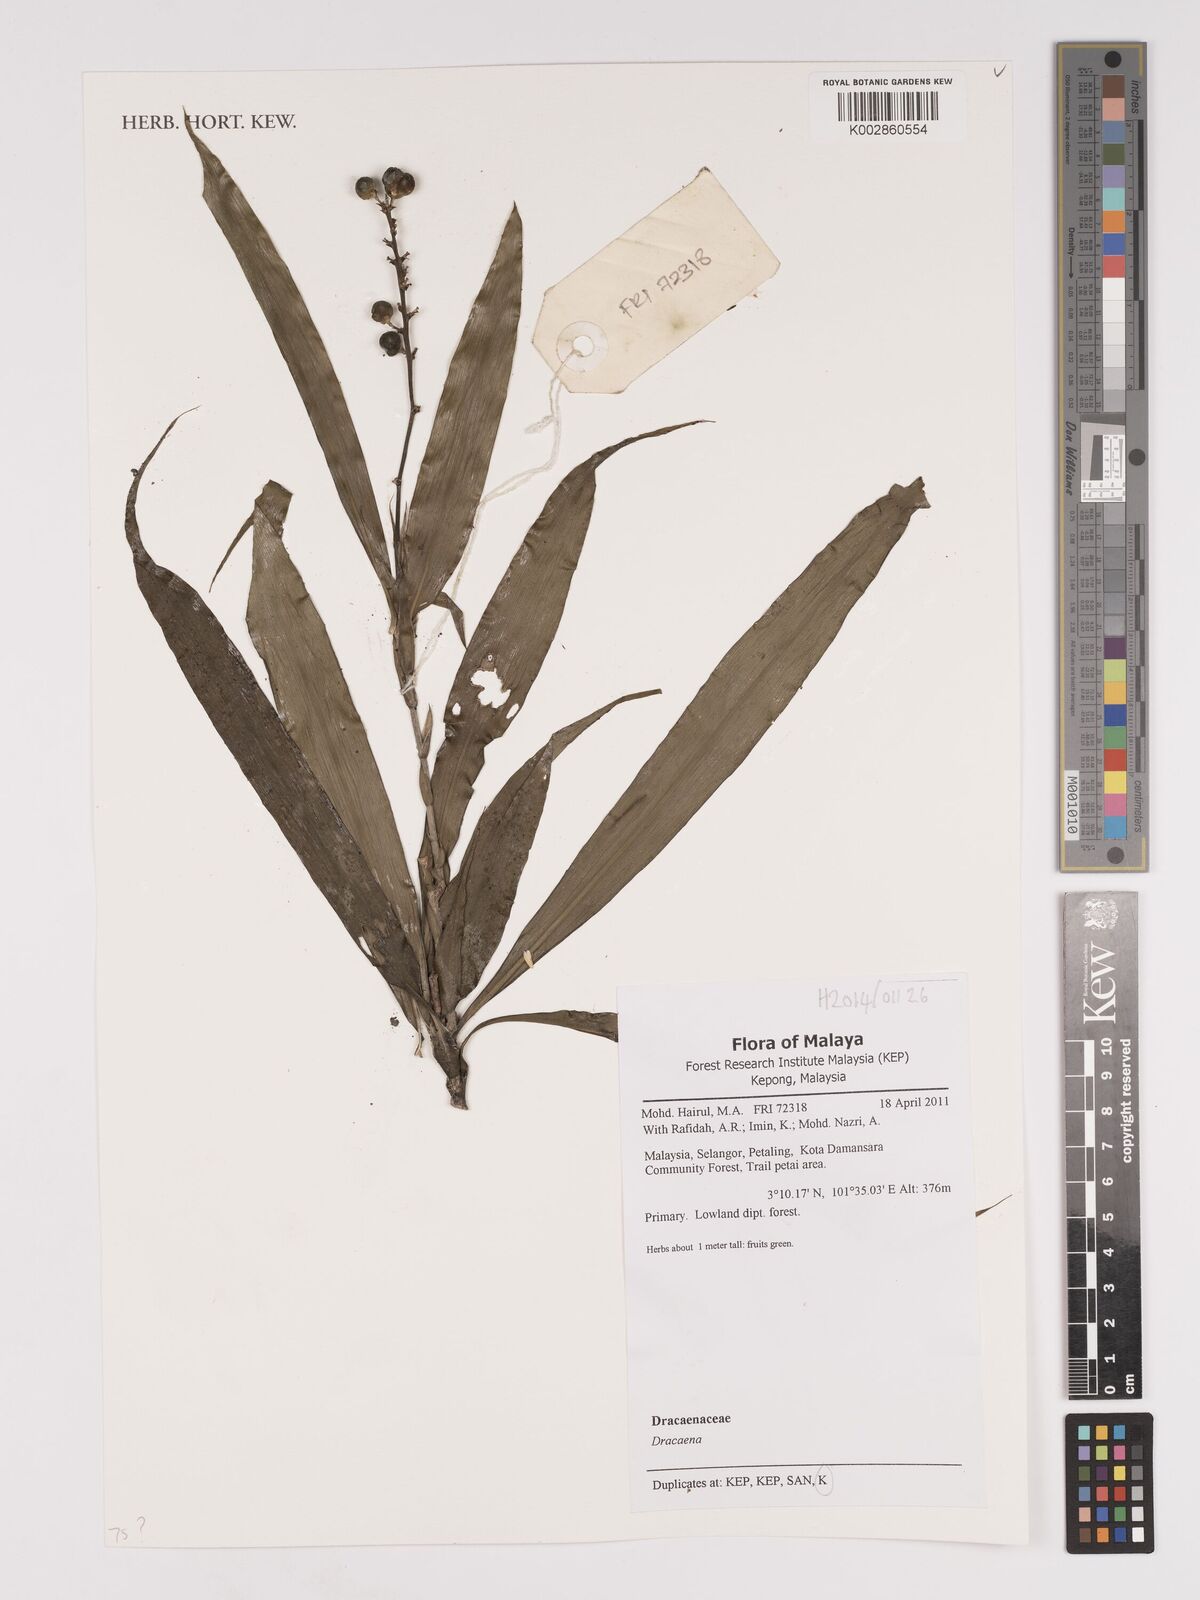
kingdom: Plantae
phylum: Tracheophyta
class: Liliopsida
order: Asparagales
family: Asparagaceae
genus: Dracaena
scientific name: Dracaena
